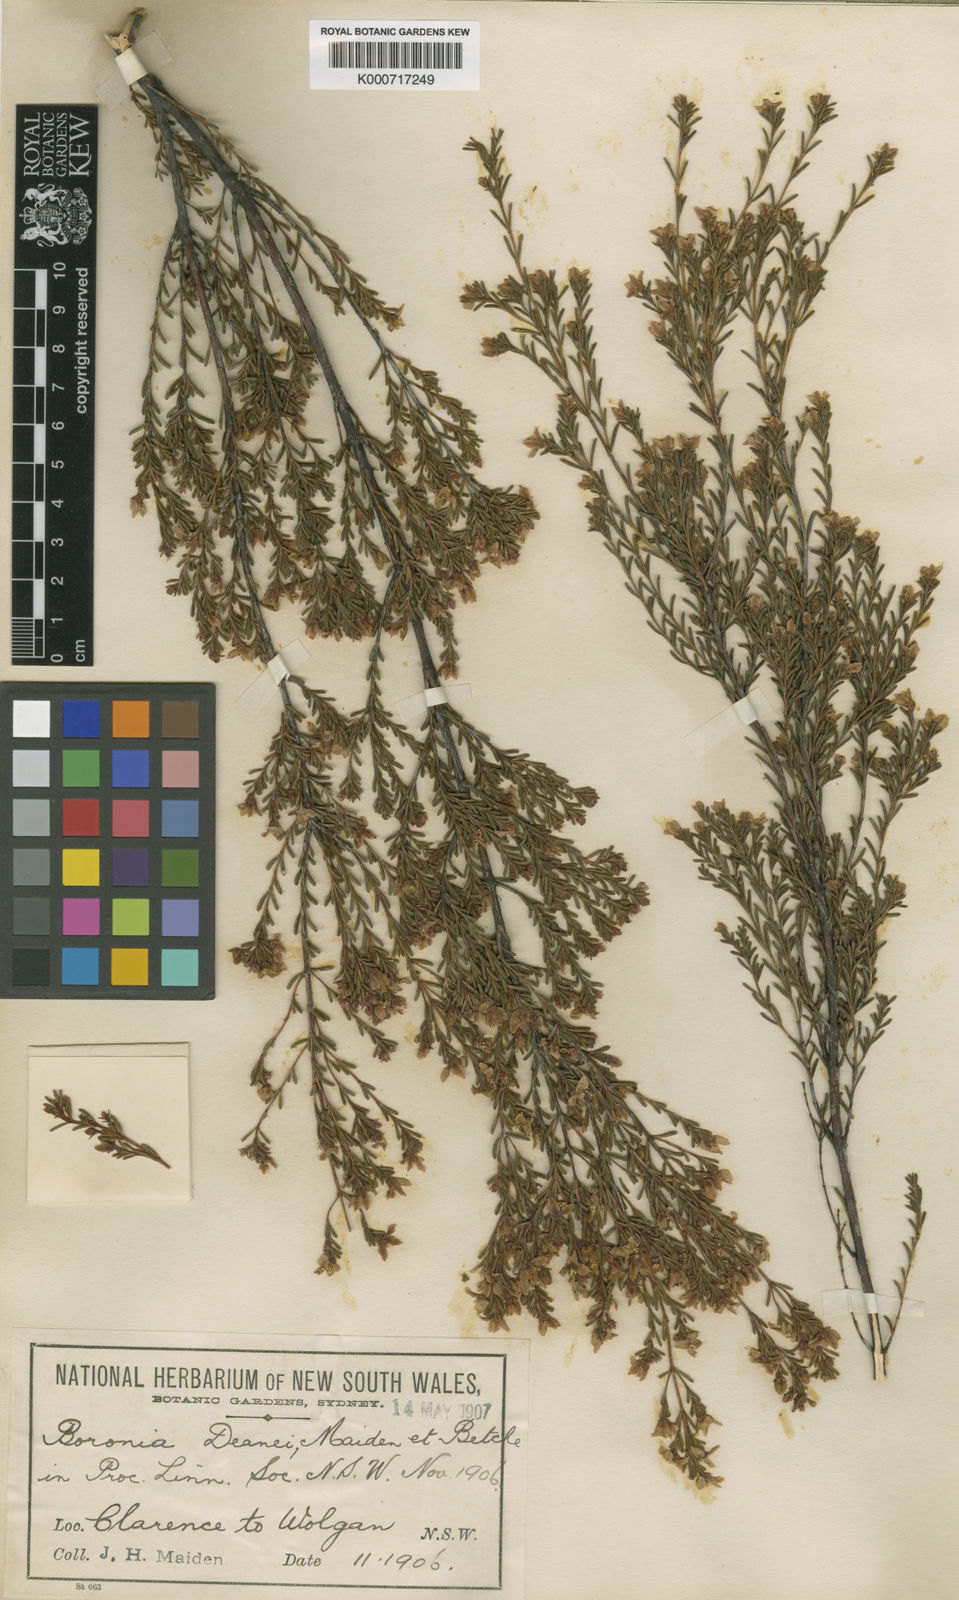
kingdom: Plantae
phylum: Tracheophyta
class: Magnoliopsida
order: Sapindales
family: Rutaceae
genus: Boronia
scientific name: Boronia deanei
